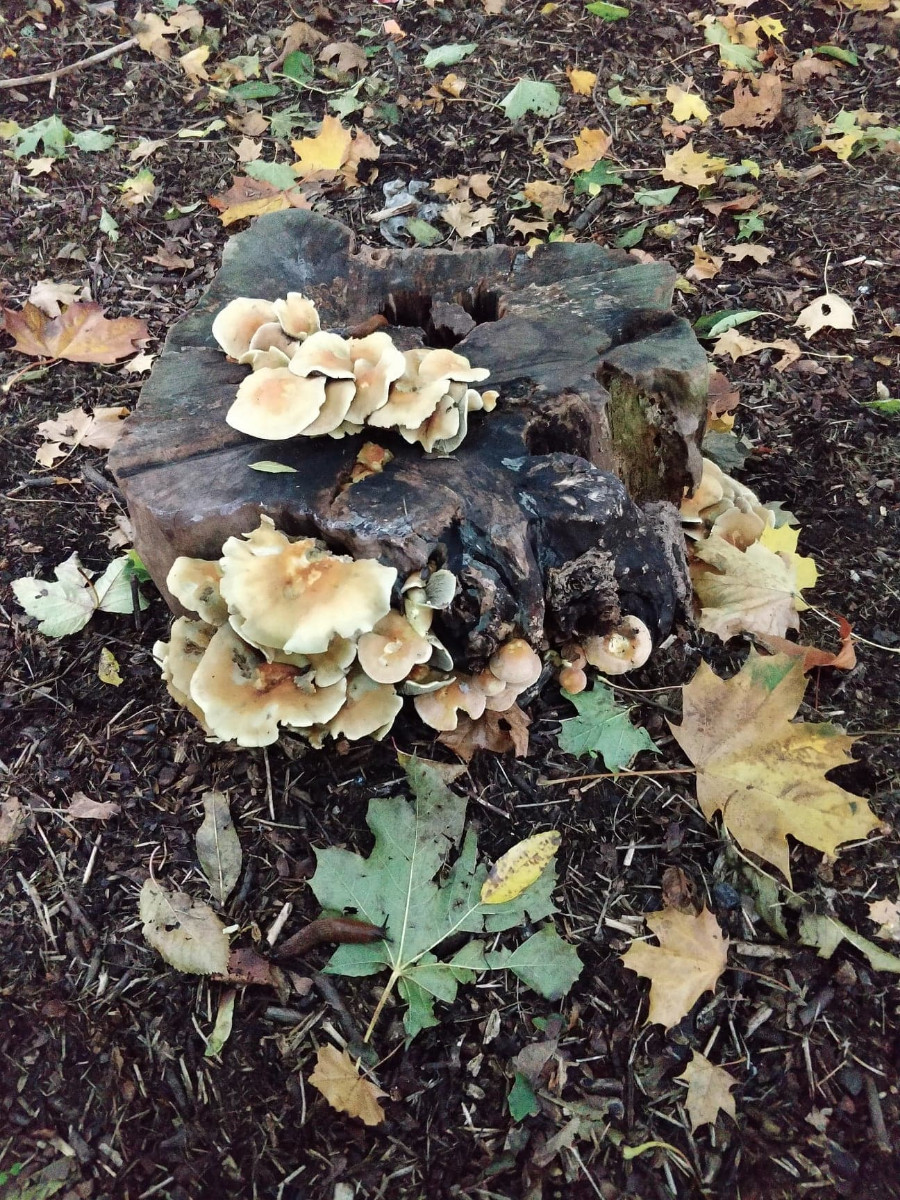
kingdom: Fungi
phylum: Basidiomycota
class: Agaricomycetes
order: Agaricales
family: Strophariaceae
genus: Hypholoma
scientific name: Hypholoma fasciculare
